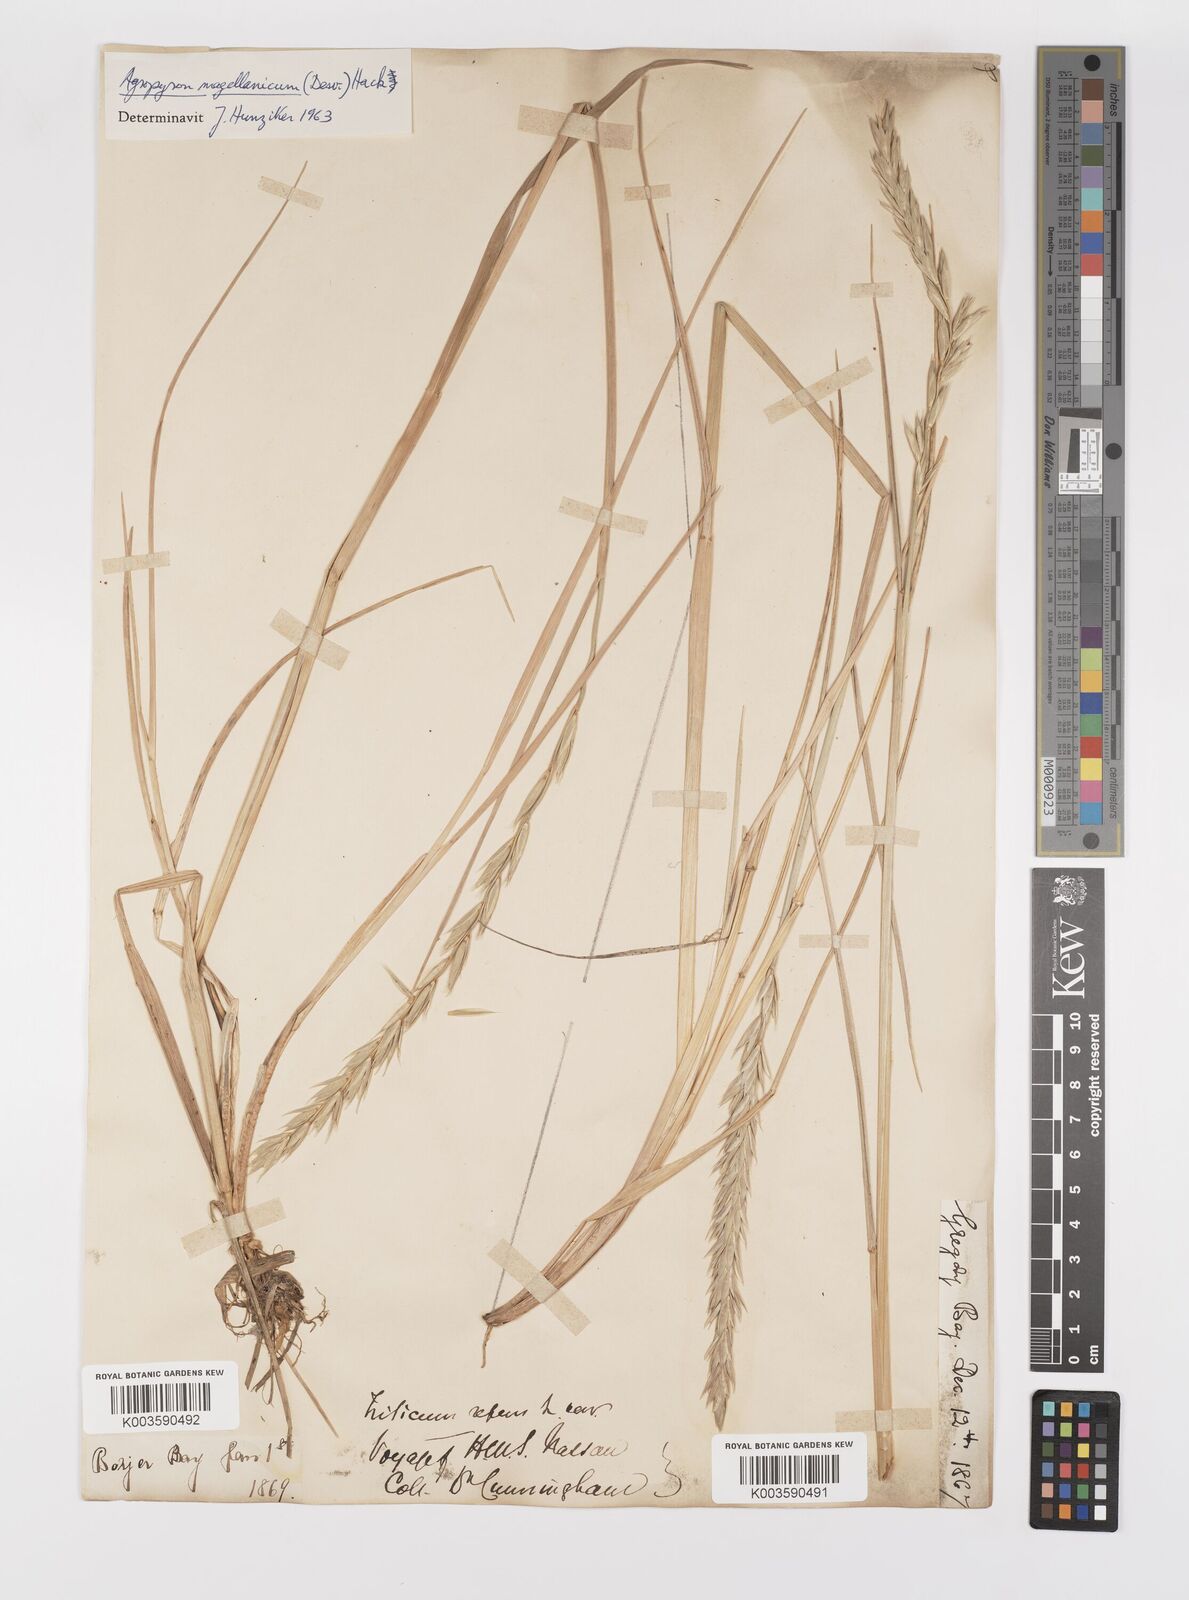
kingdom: Plantae
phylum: Tracheophyta
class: Liliopsida
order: Poales
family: Poaceae
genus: Elymus
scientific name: Elymus magellanicus
